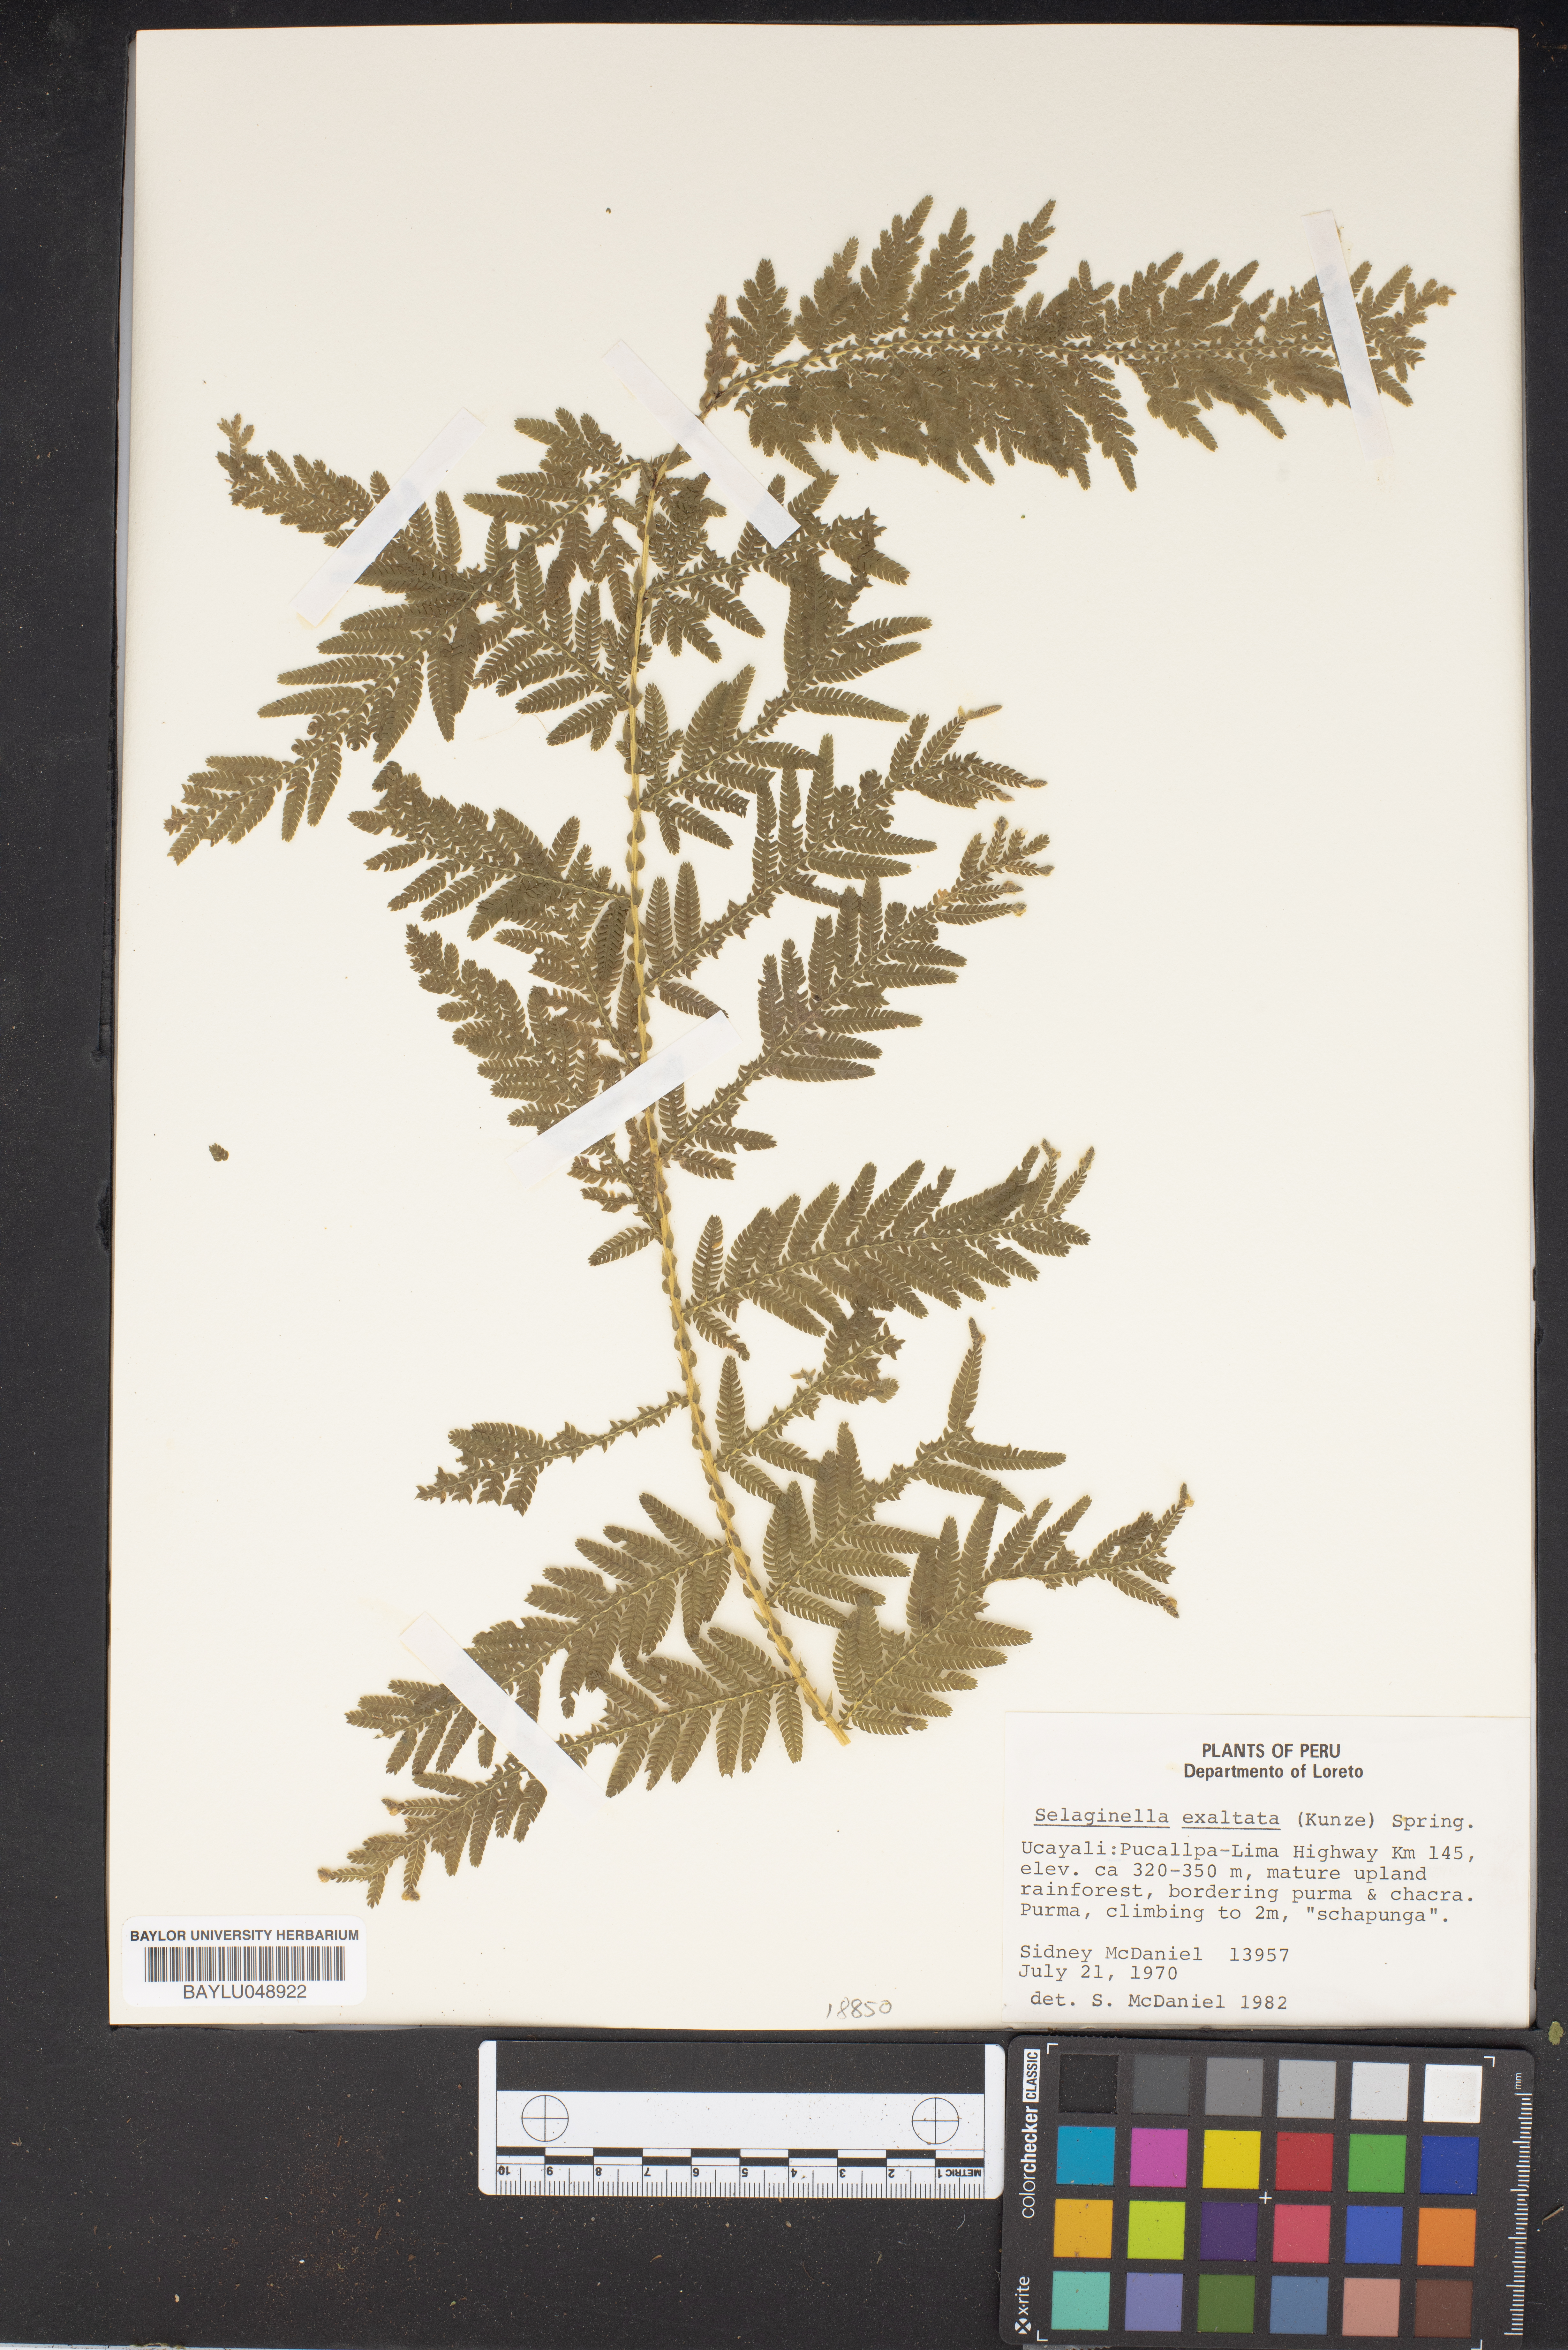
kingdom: Plantae
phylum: Tracheophyta
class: Lycopodiopsida
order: Selaginellales
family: Selaginellaceae
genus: Selaginella
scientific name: Selaginella exaltata
